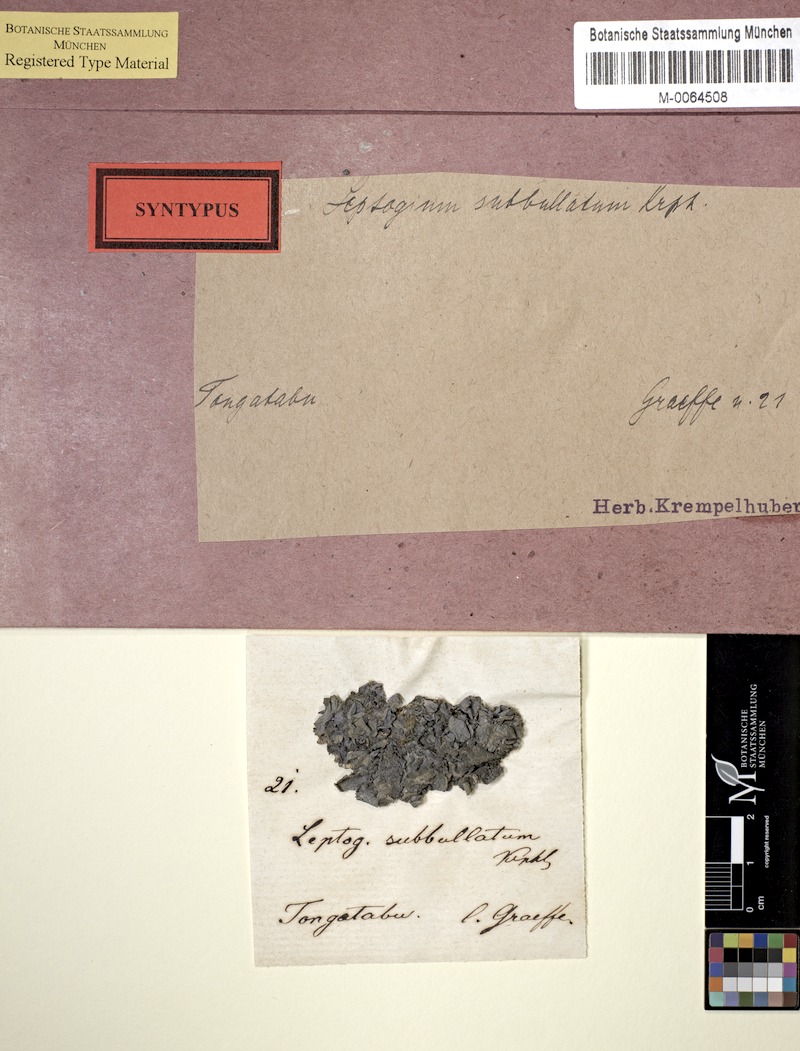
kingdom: Fungi
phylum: Ascomycota
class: Lecanoromycetes
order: Peltigerales
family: Collemataceae
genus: Leptogium
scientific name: Leptogium
